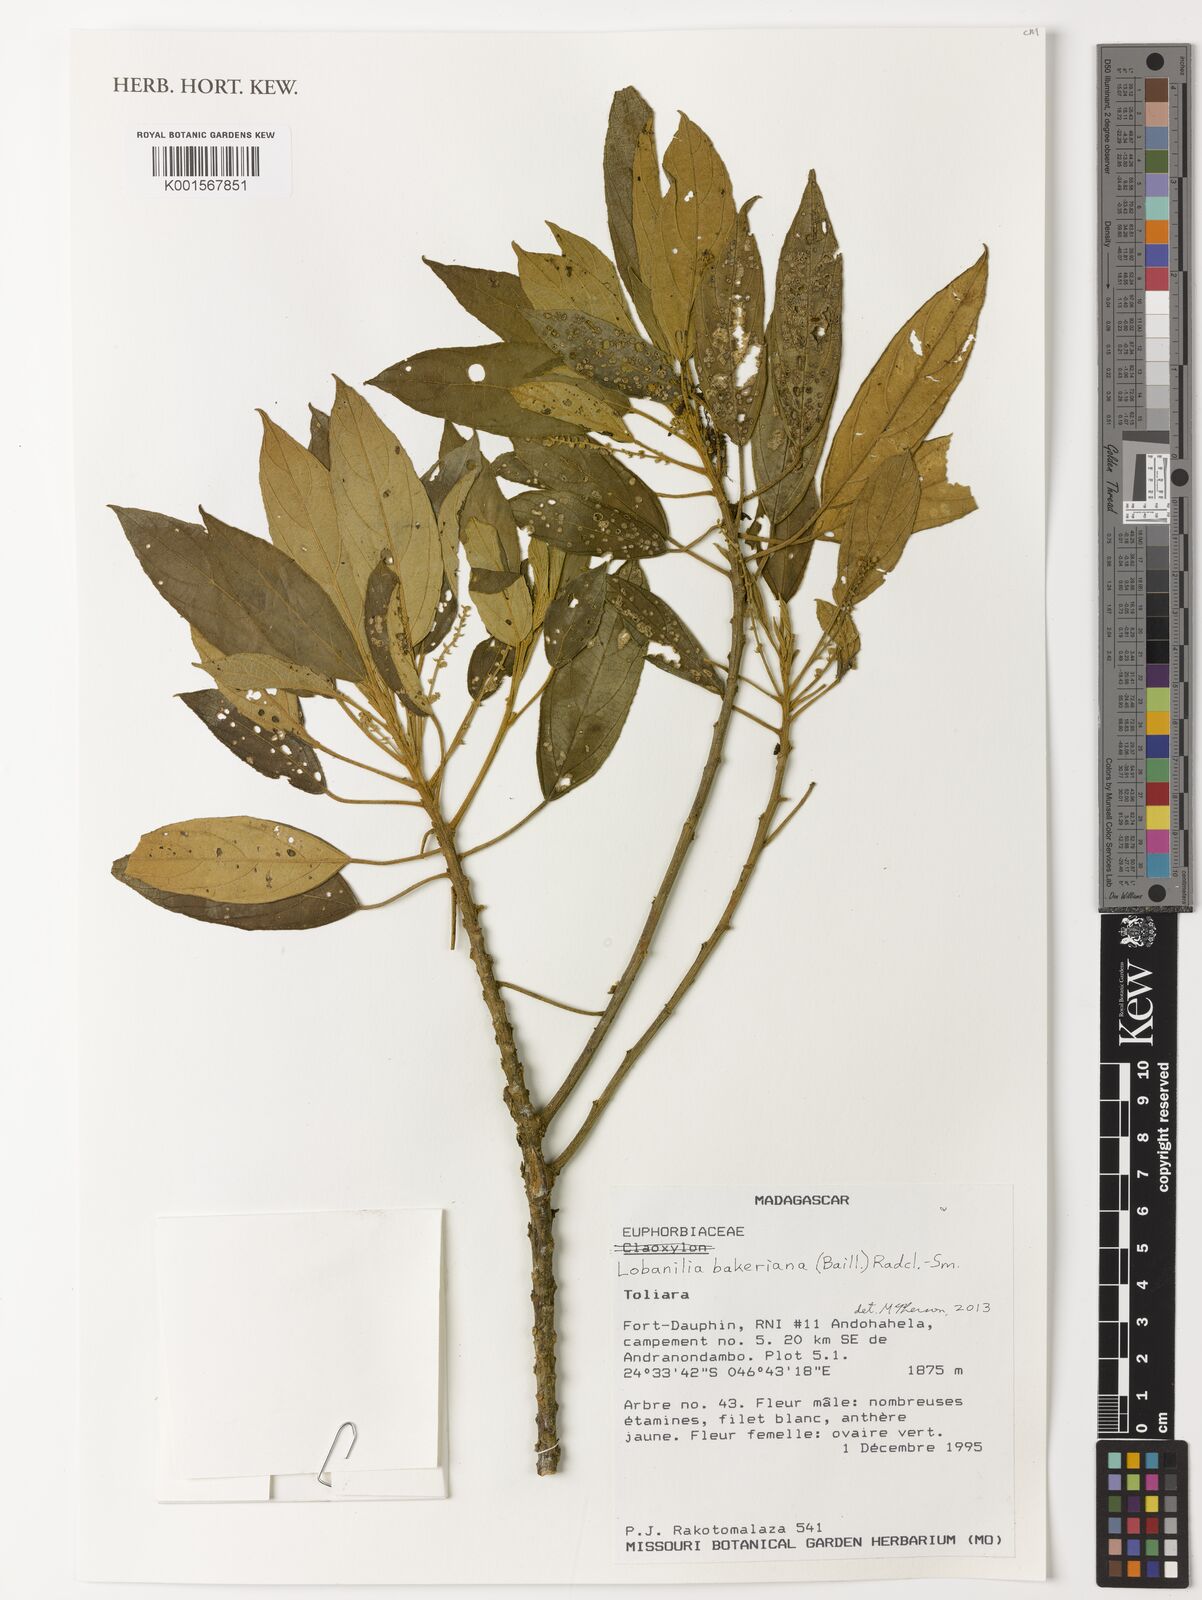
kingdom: Plantae
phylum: Tracheophyta
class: Magnoliopsida
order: Malpighiales
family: Euphorbiaceae
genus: Lobanilia
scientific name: Lobanilia bakeriana
